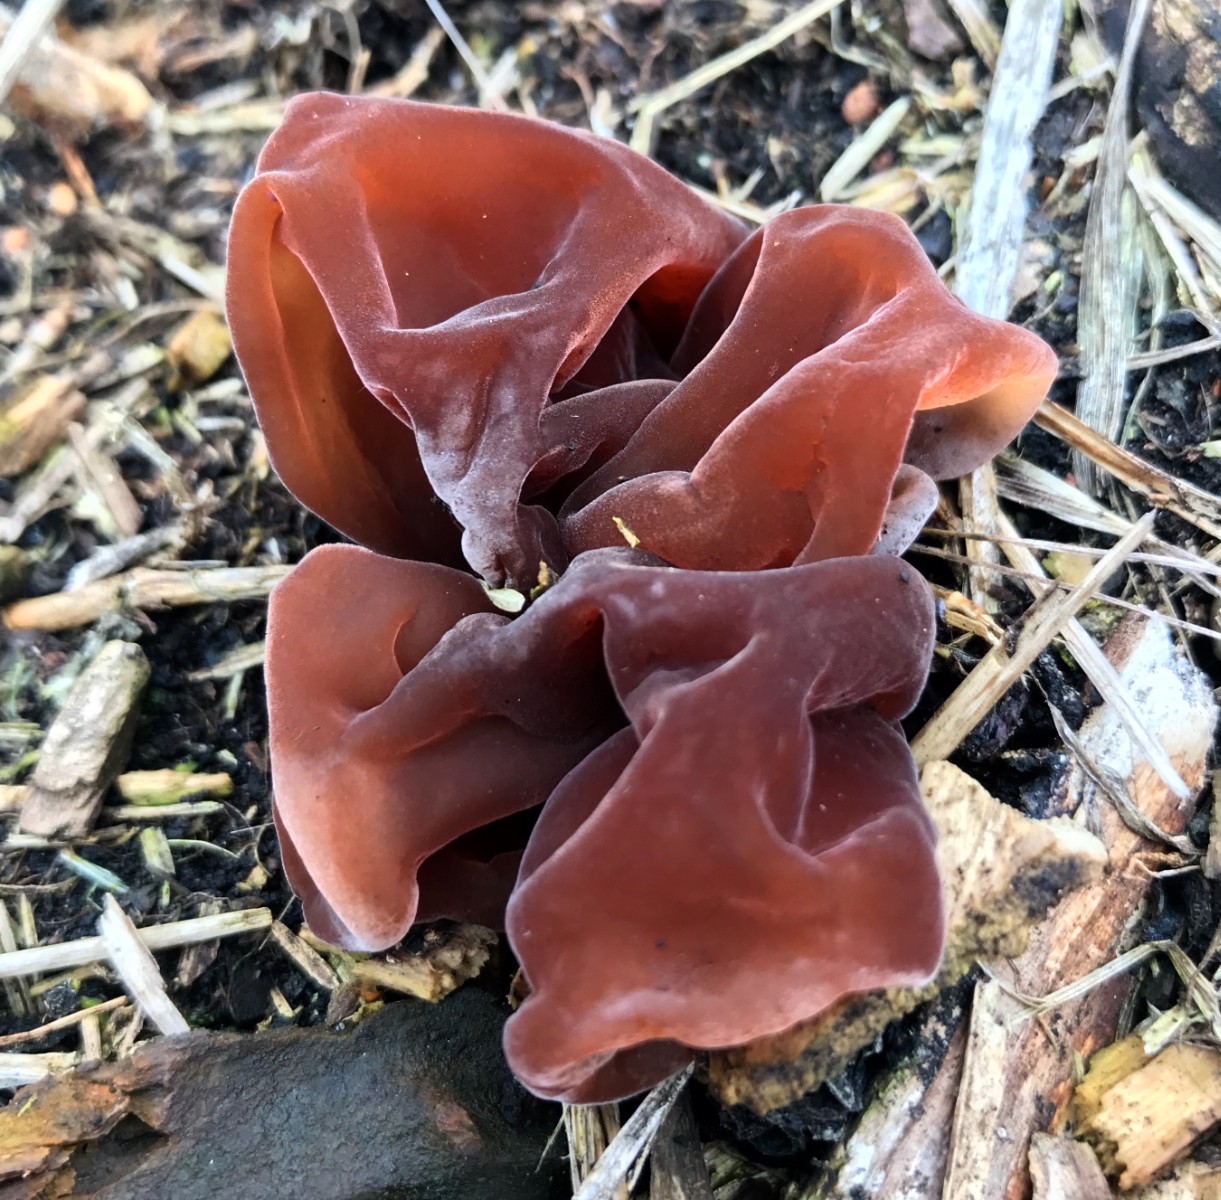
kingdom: Fungi
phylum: Basidiomycota
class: Agaricomycetes
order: Auriculariales
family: Auriculariaceae
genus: Auricularia
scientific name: Auricularia auricula-judae
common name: almindelig judasøre
